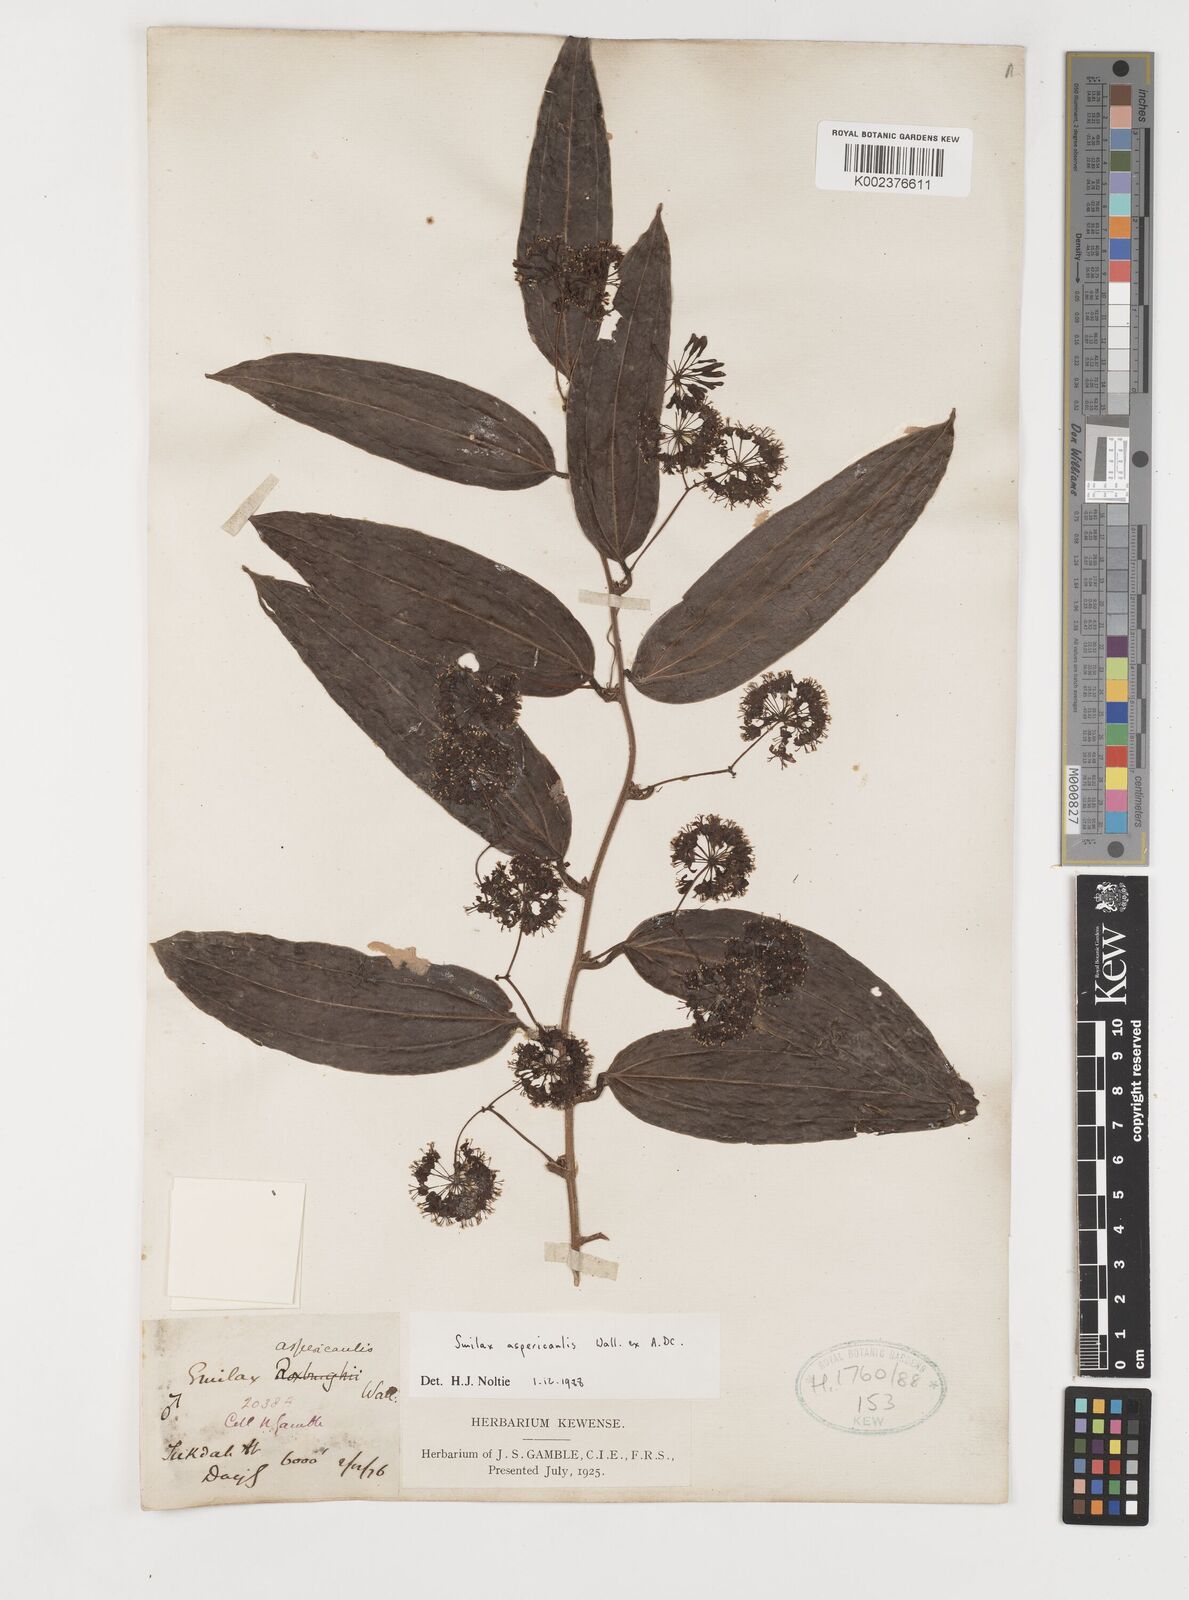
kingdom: Plantae
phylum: Tracheophyta
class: Liliopsida
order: Liliales
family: Smilacaceae
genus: Smilax
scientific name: Smilax aspericaulis
